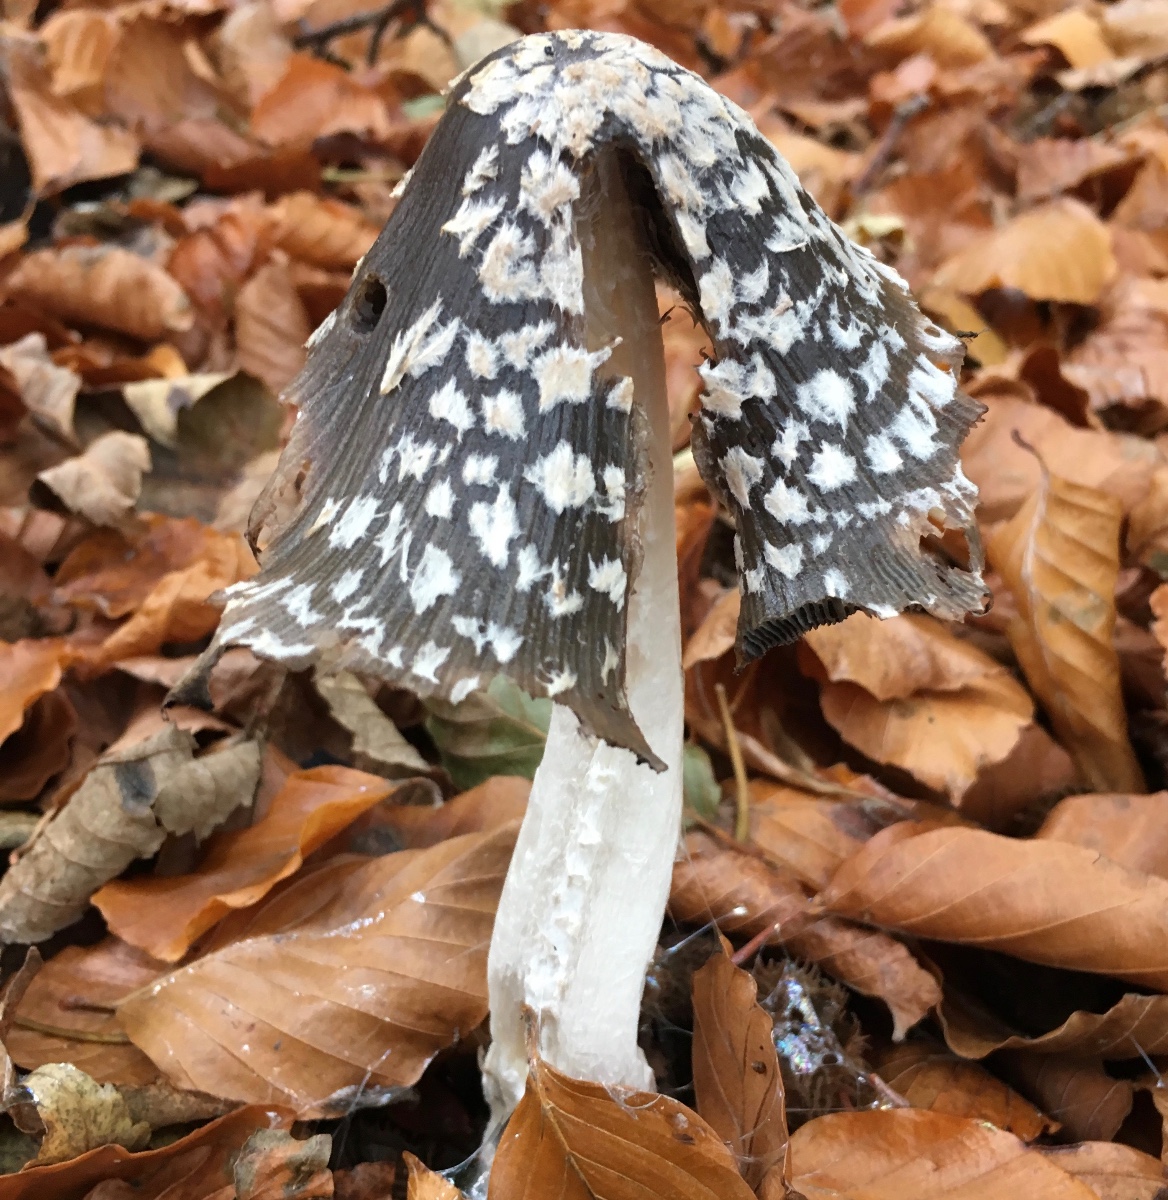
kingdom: Fungi
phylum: Basidiomycota
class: Agaricomycetes
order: Agaricales
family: Psathyrellaceae
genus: Coprinopsis
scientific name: Coprinopsis picacea
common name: skade-blækhat
